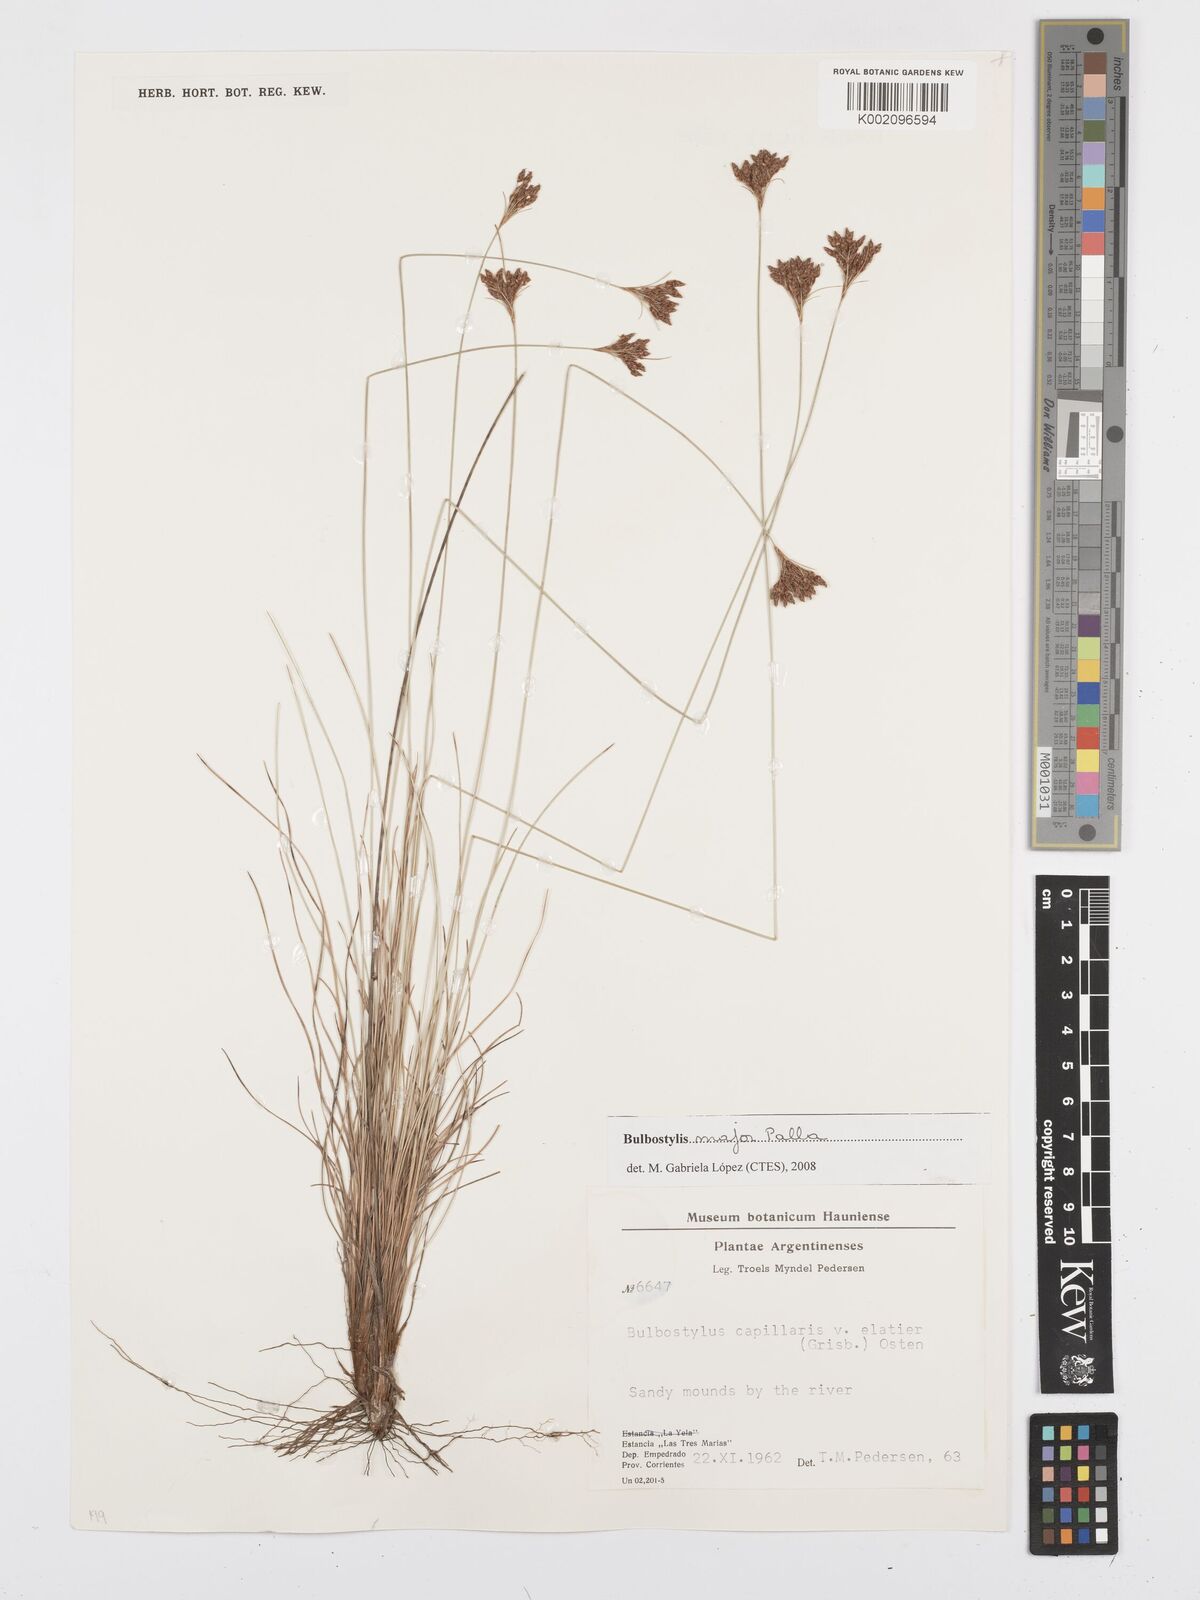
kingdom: Plantae
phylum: Tracheophyta
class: Liliopsida
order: Poales
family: Cyperaceae
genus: Bulbostylis
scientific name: Bulbostylis major
